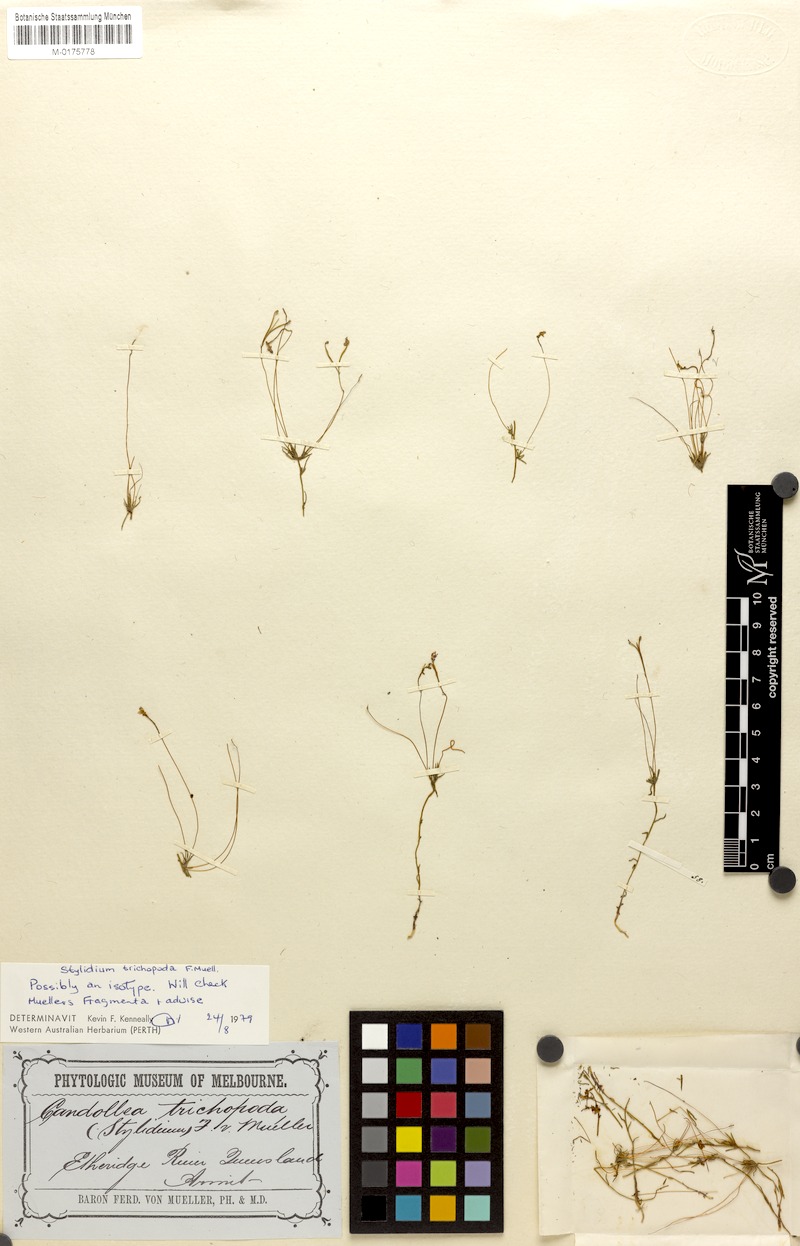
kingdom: Plantae
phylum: Tracheophyta
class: Magnoliopsida
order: Asterales
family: Stylidiaceae
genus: Stylidium
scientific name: Stylidium trichopodum
